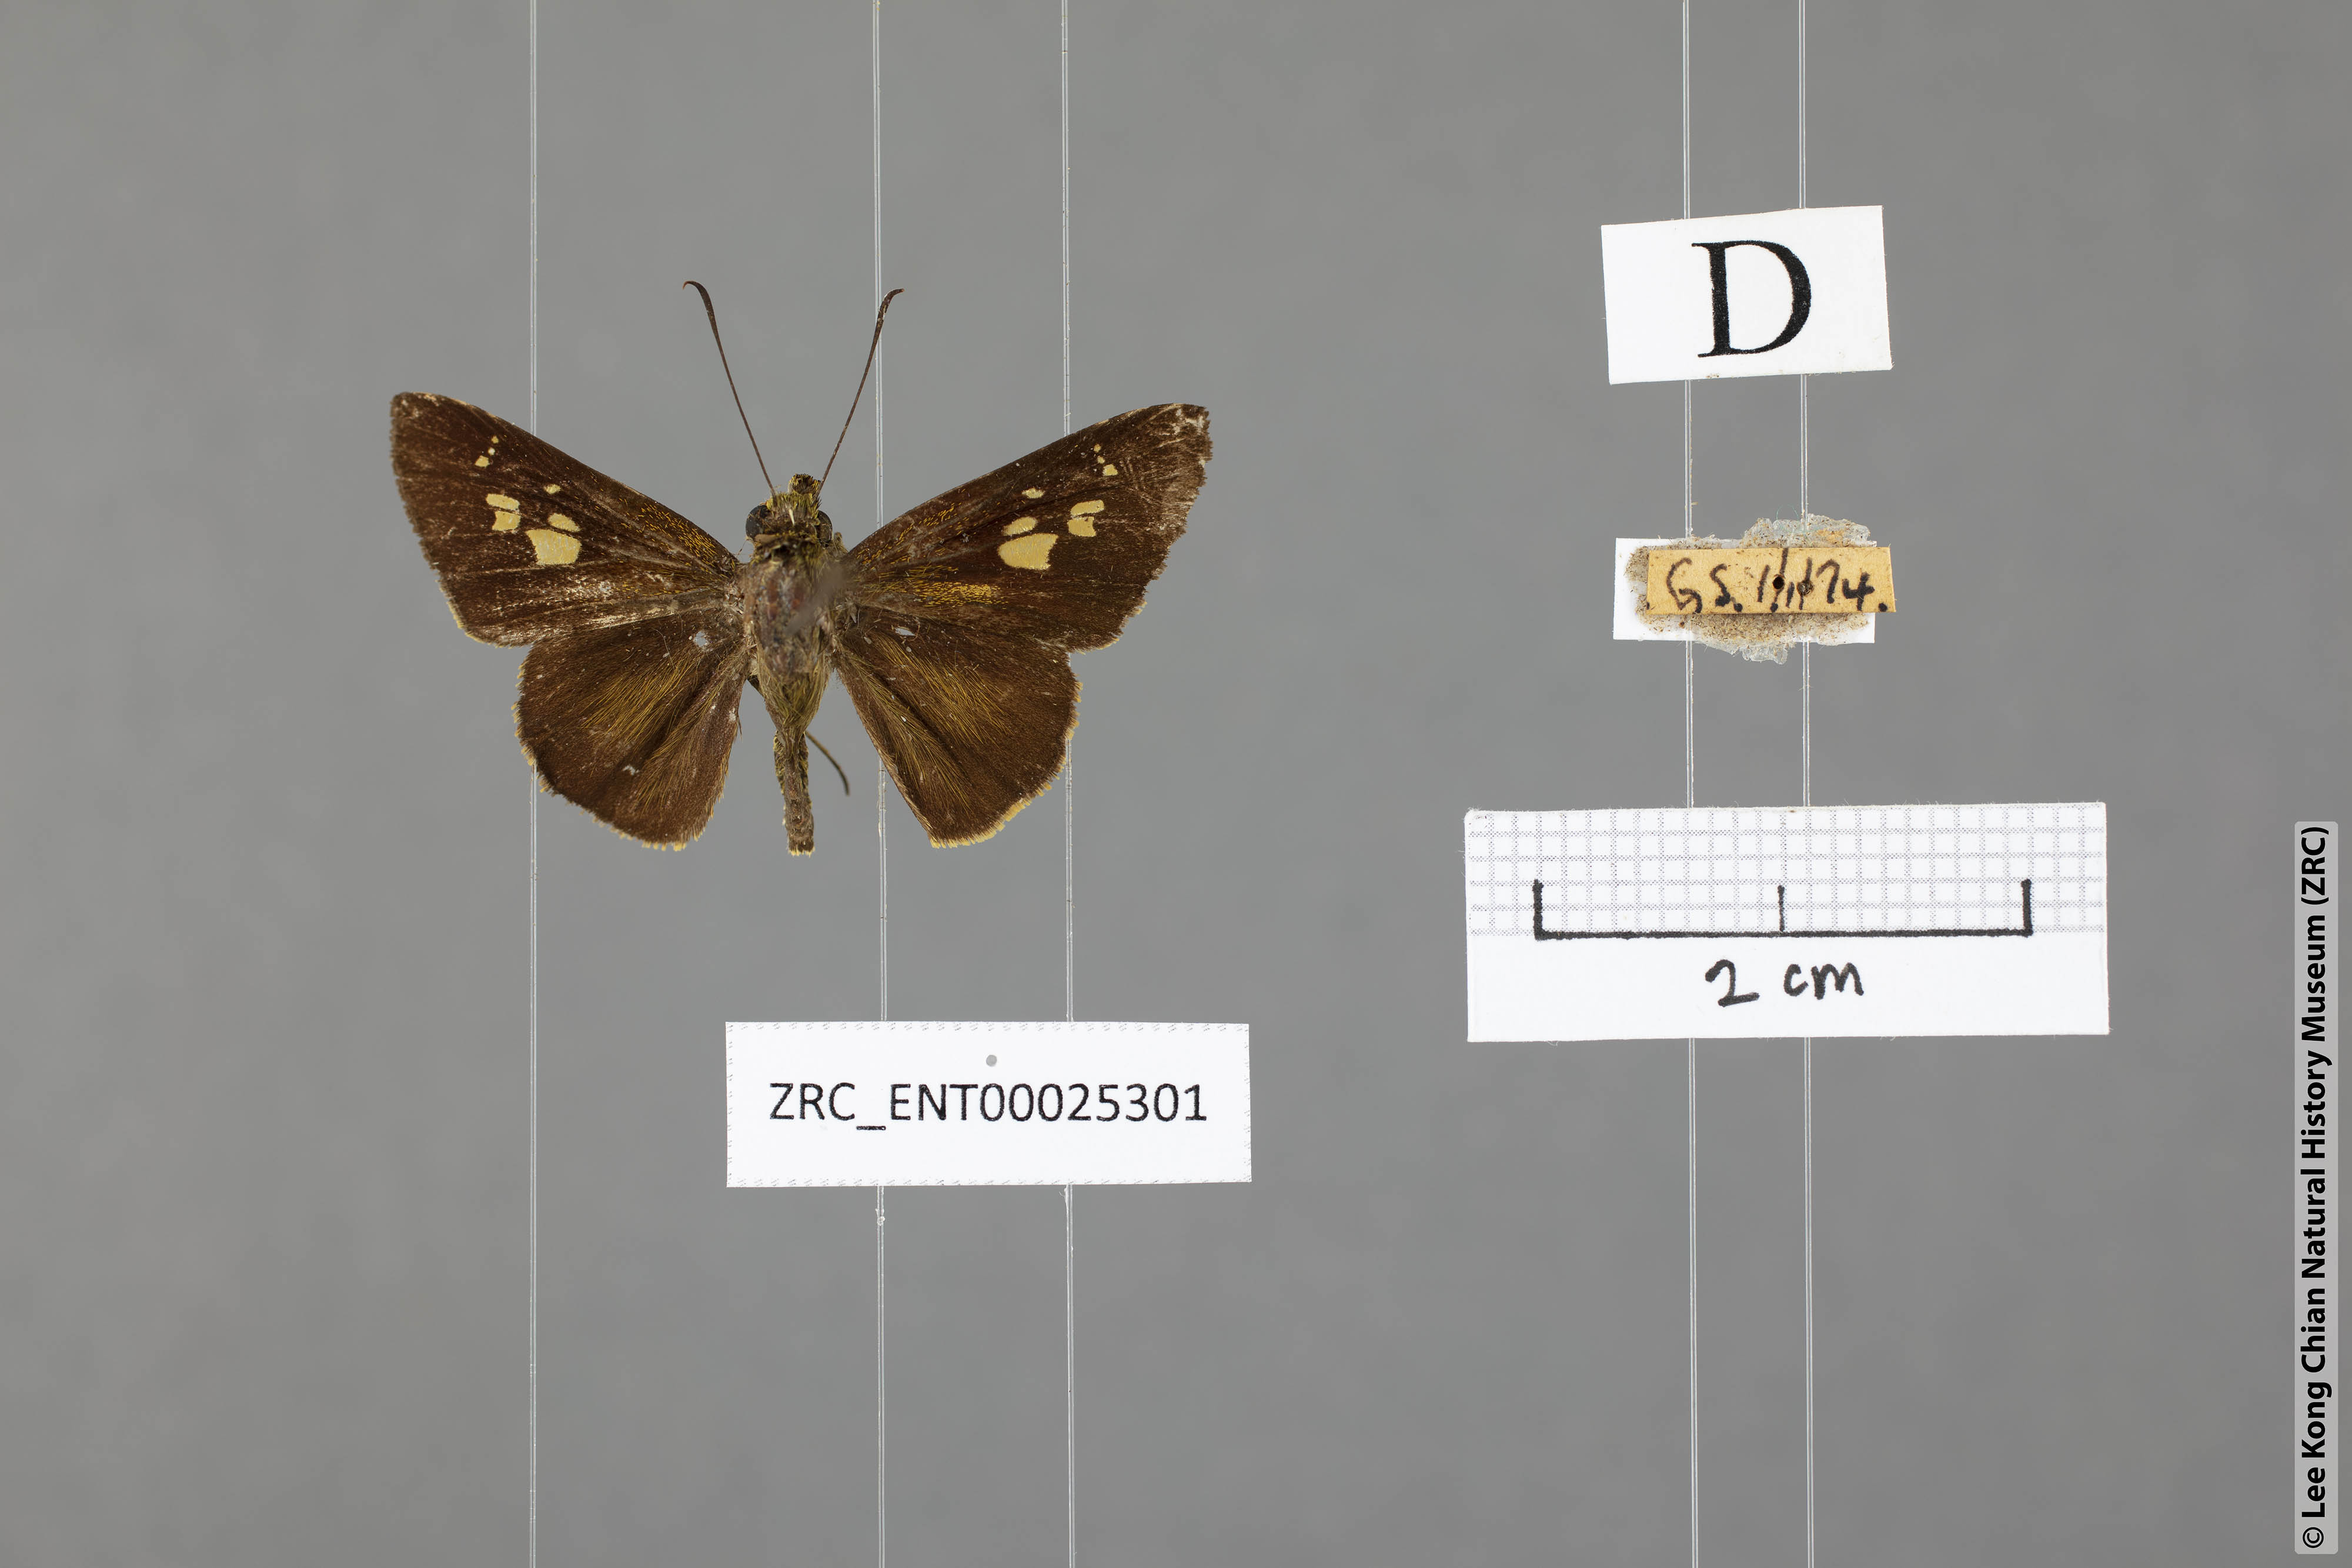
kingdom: Animalia
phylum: Arthropoda
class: Insecta
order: Lepidoptera
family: Hesperiidae
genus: Pemara
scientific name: Pemara pugnans
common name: Pugnacious lancer
